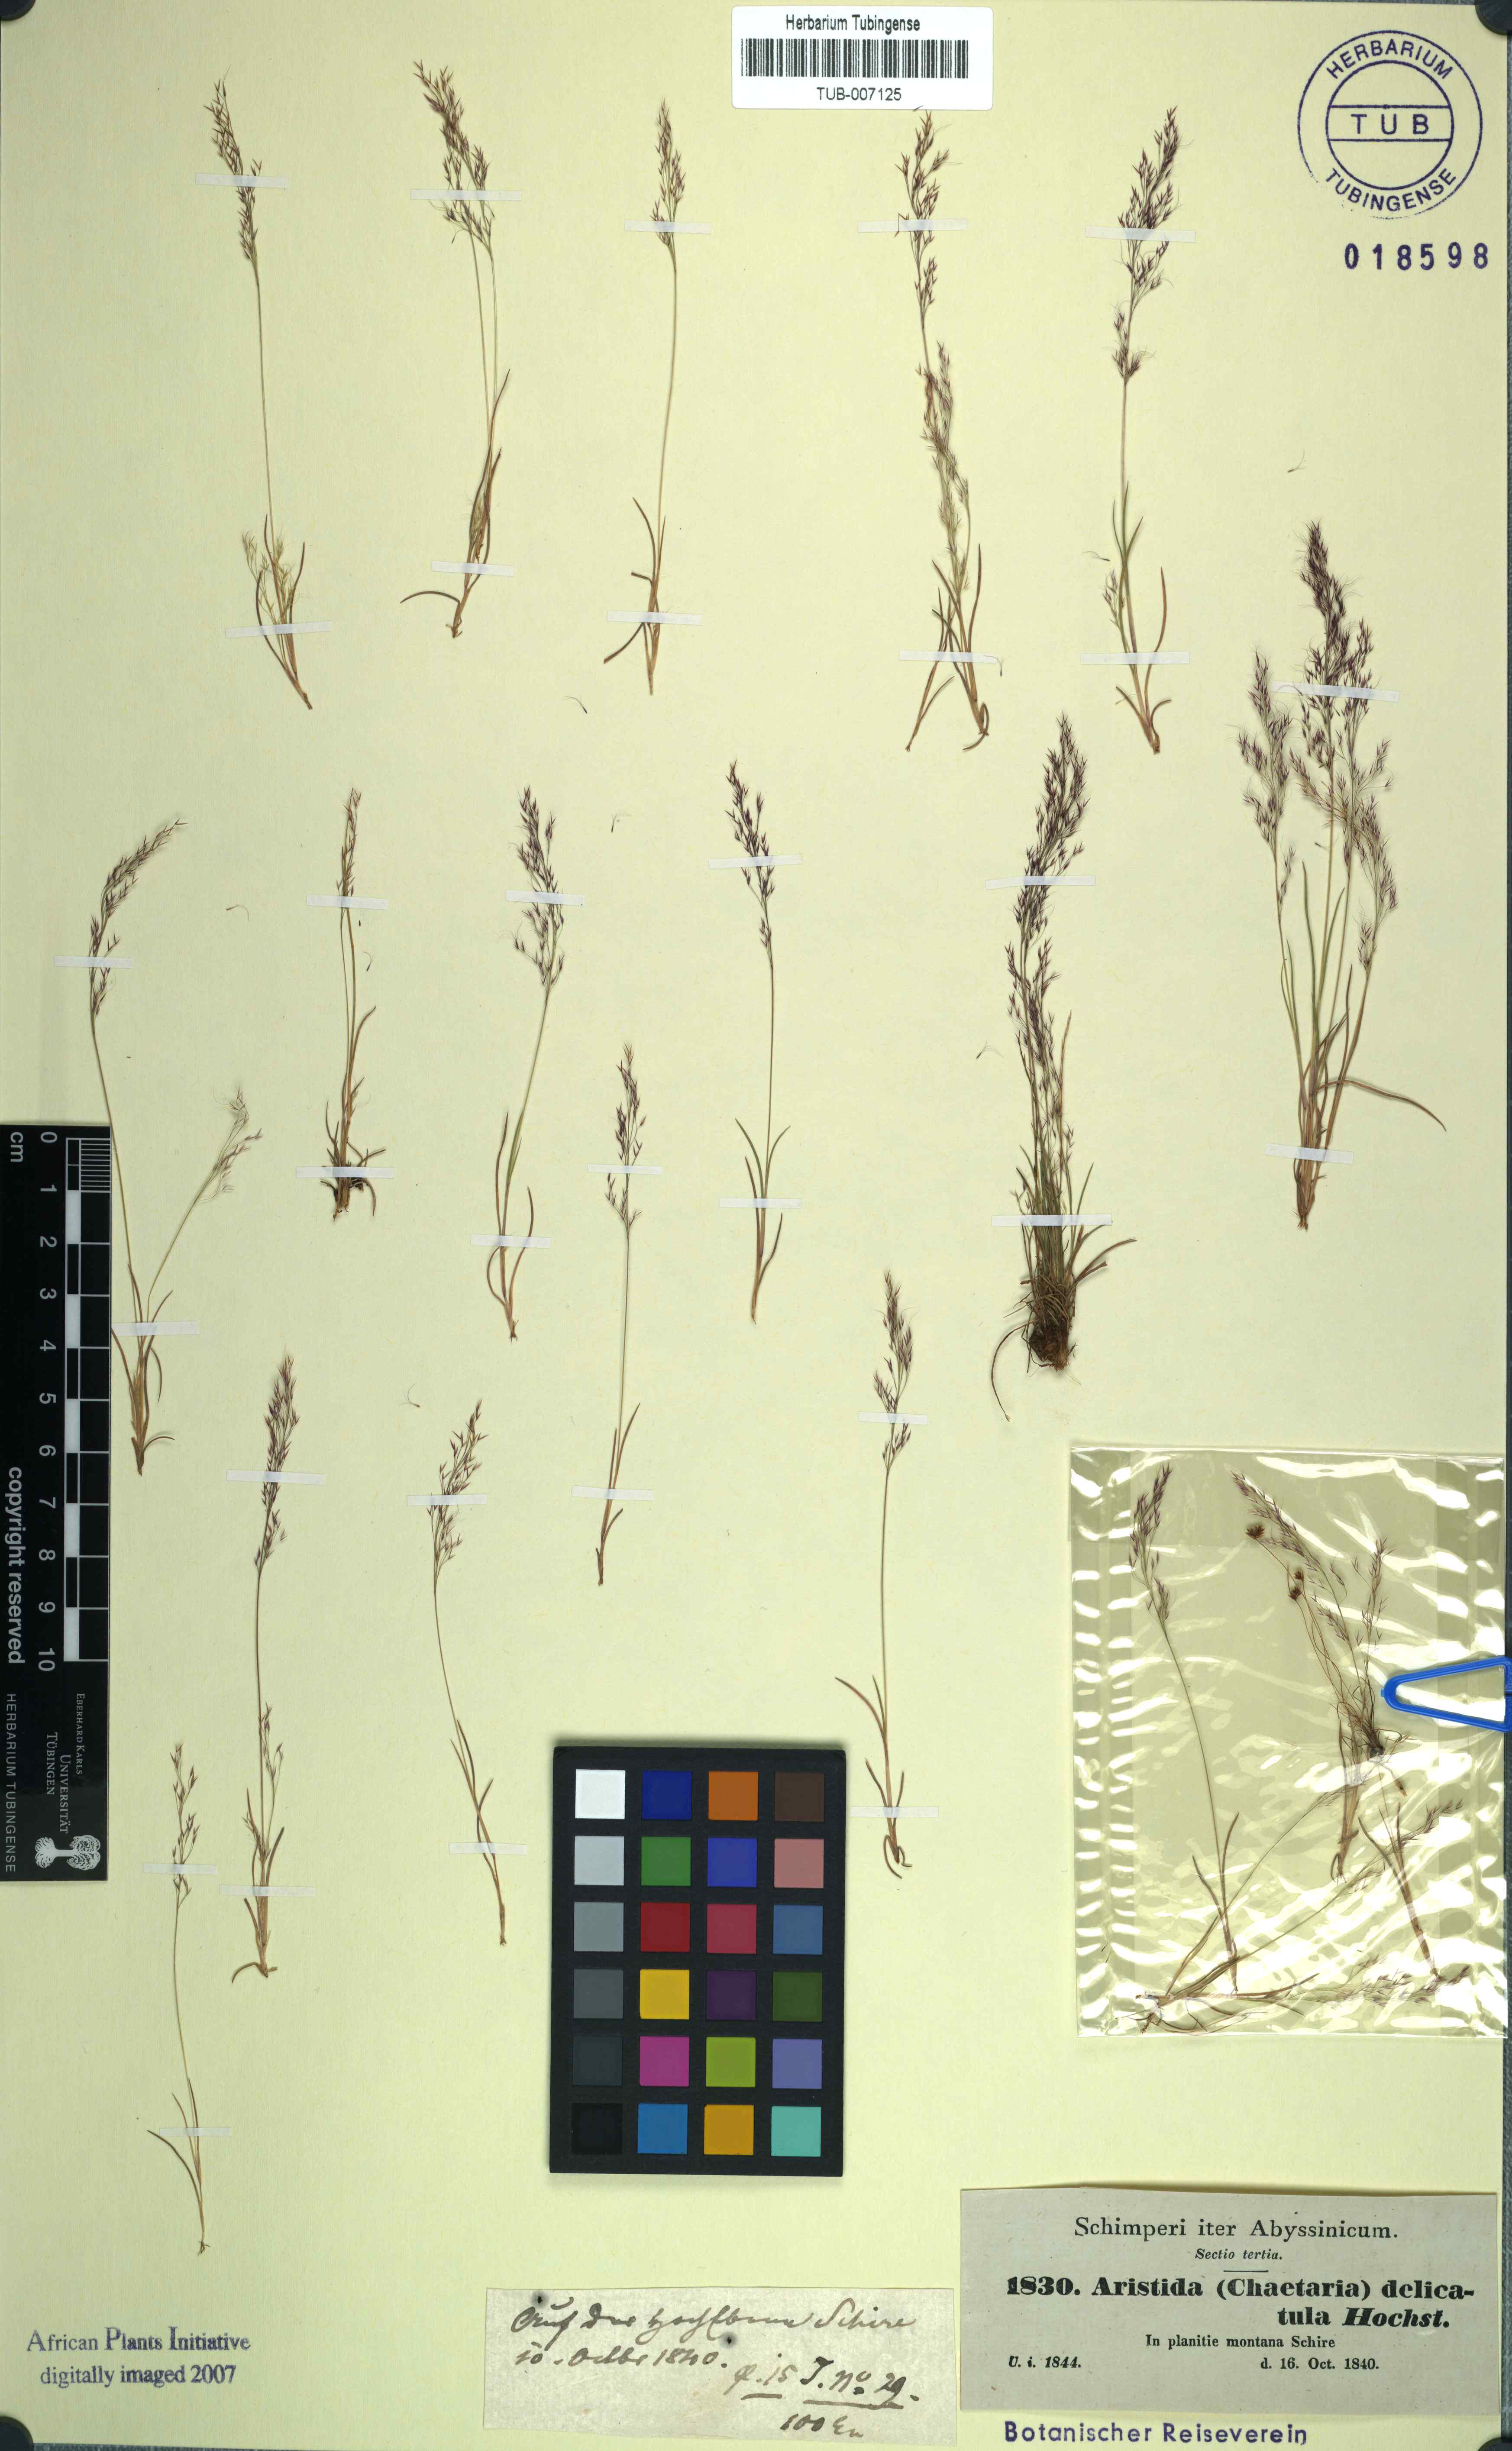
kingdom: Plantae
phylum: Tracheophyta
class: Liliopsida
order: Poales
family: Poaceae
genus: Aristida
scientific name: Aristida cumingiana
